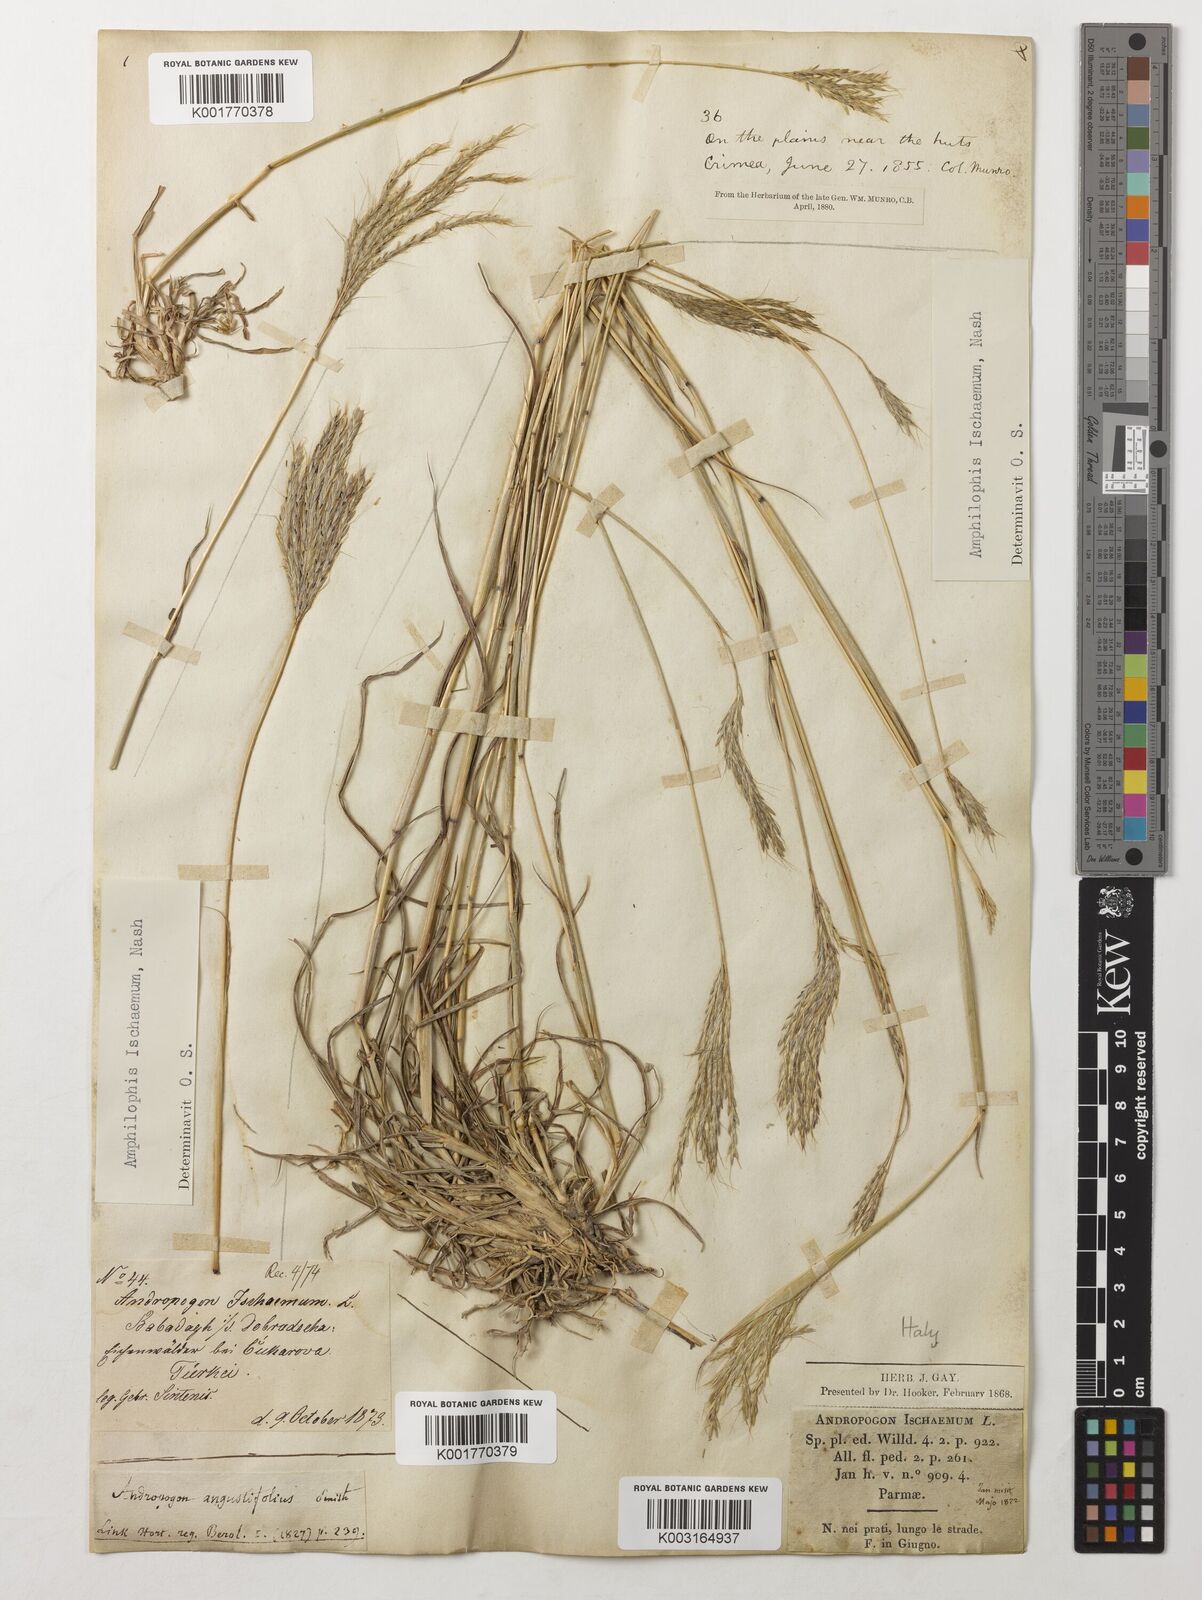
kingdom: Plantae
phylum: Tracheophyta
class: Liliopsida
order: Poales
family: Poaceae
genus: Bothriochloa
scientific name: Bothriochloa ischaemum
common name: Yellow bluestem
